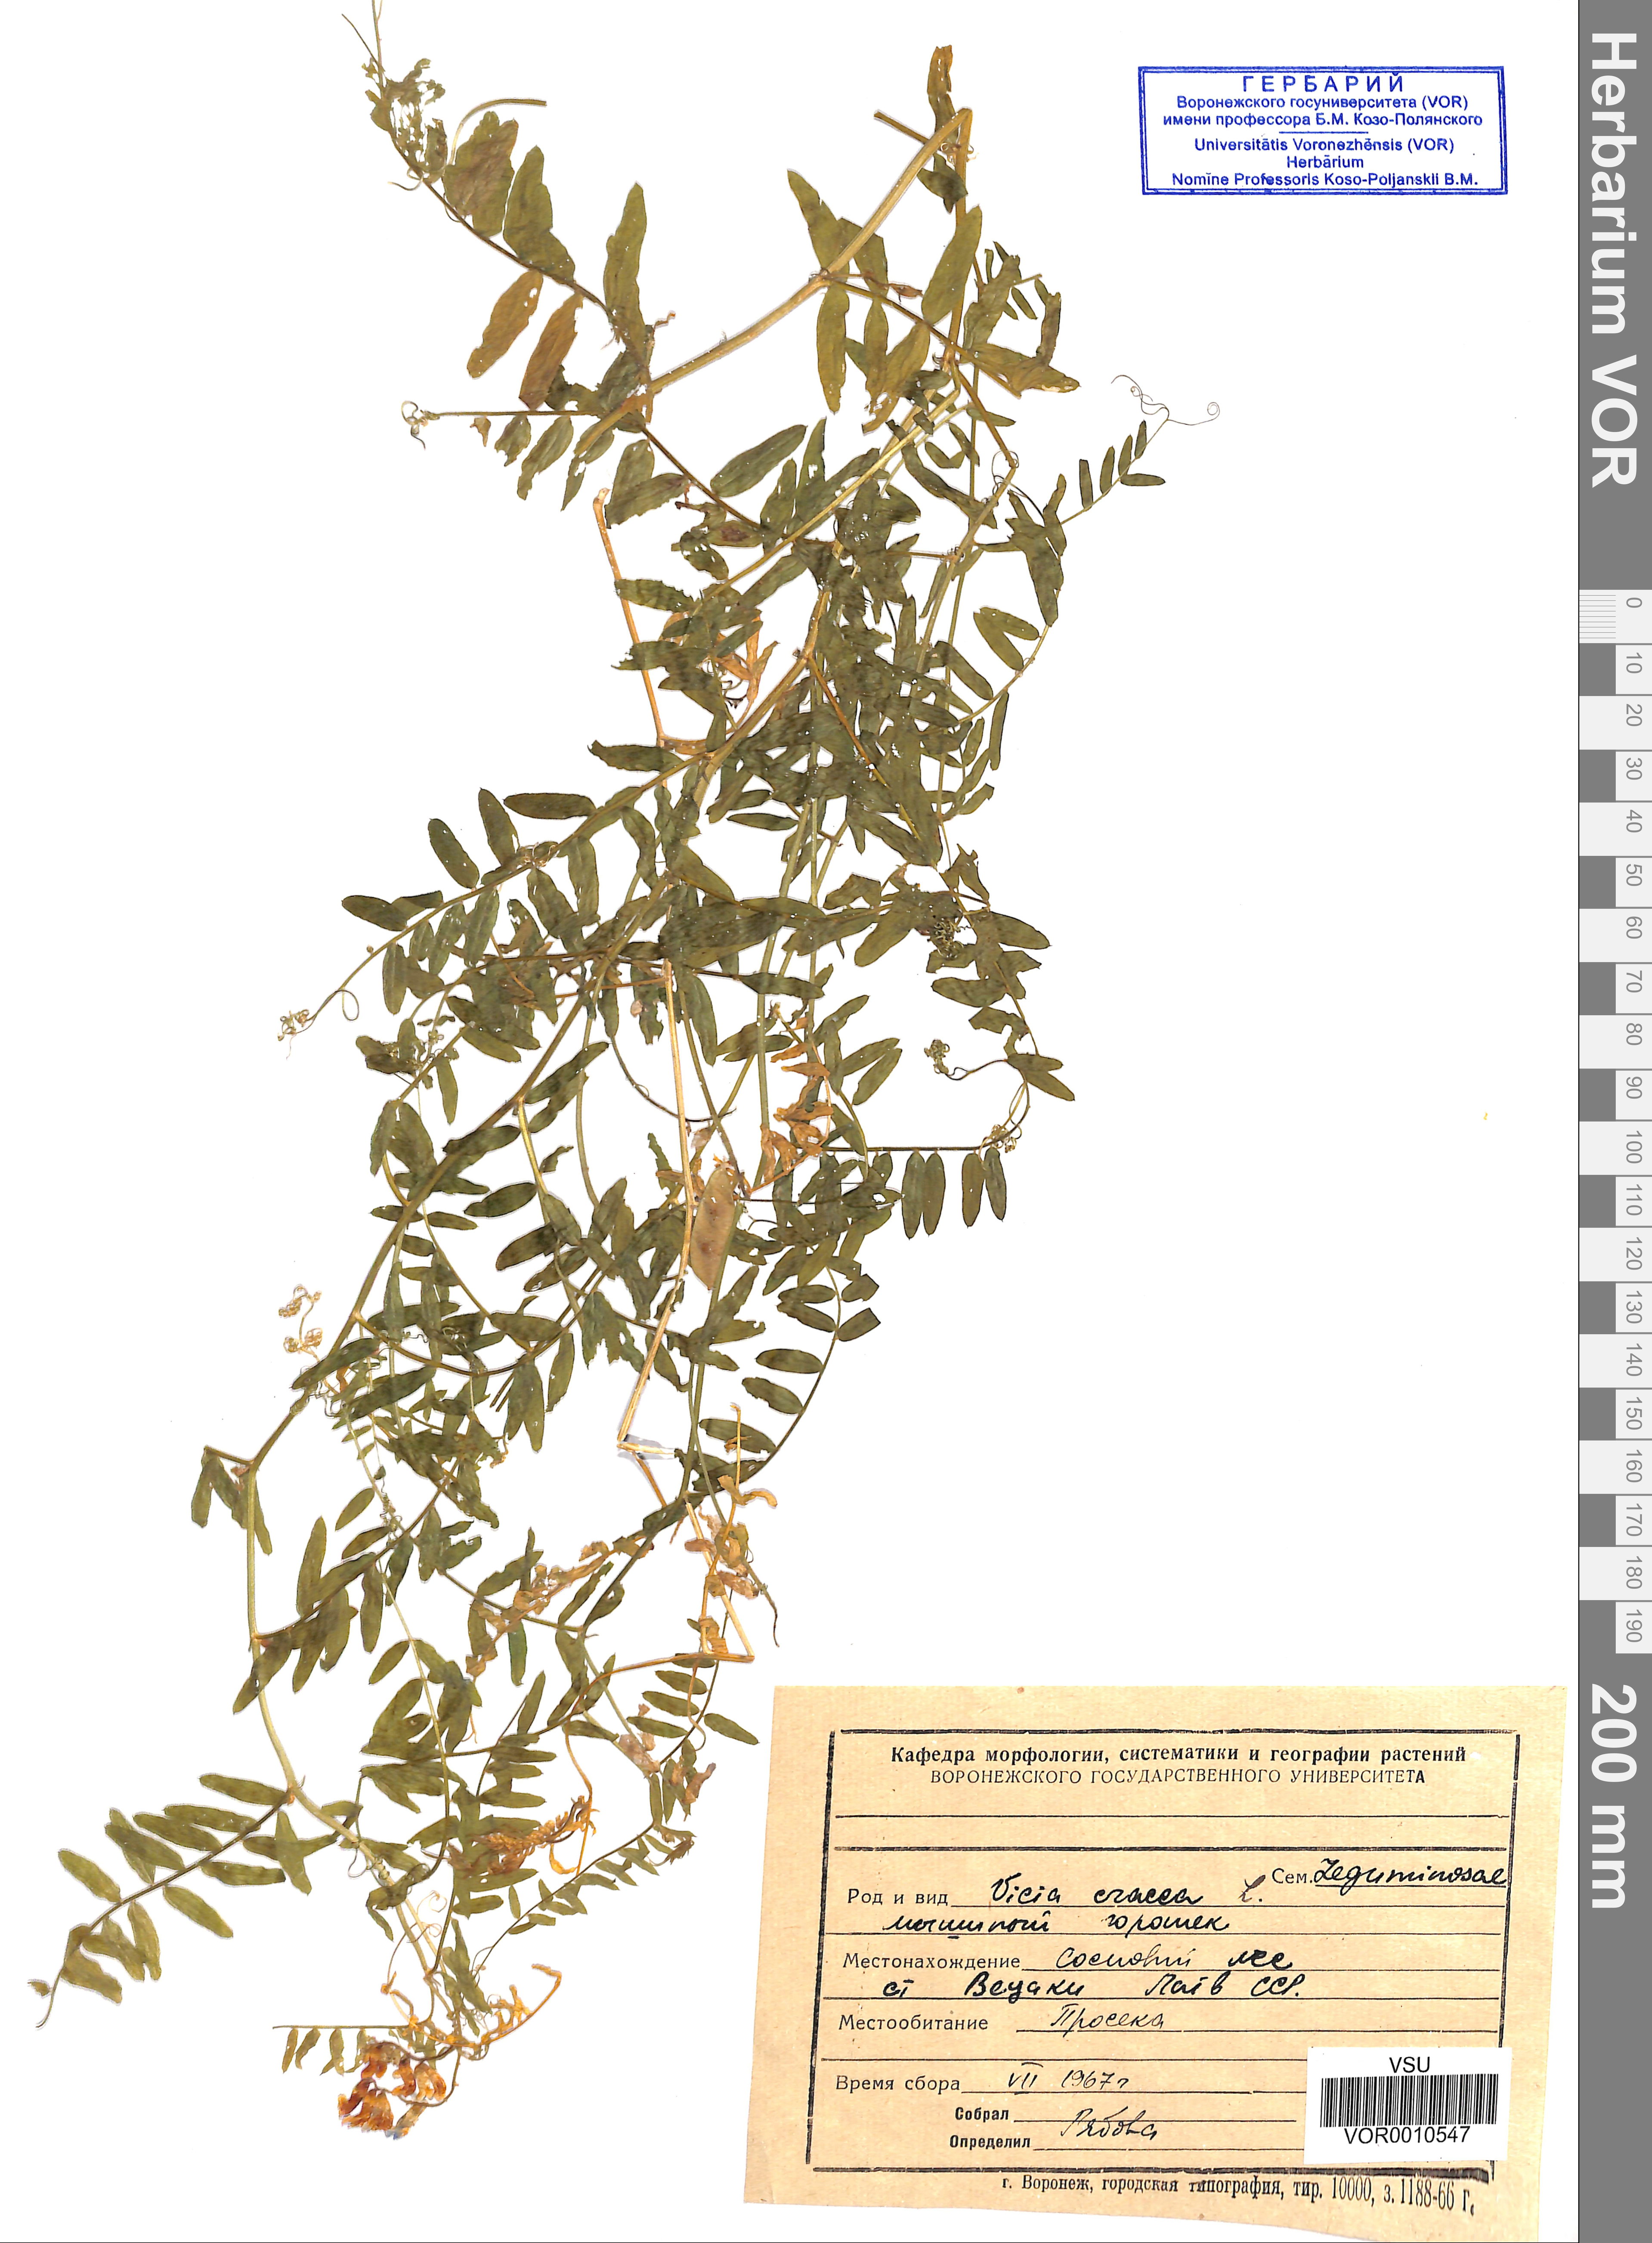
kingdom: Plantae
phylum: Tracheophyta
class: Magnoliopsida
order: Fabales
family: Fabaceae
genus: Vicia
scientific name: Vicia cracca
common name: Bird vetch
